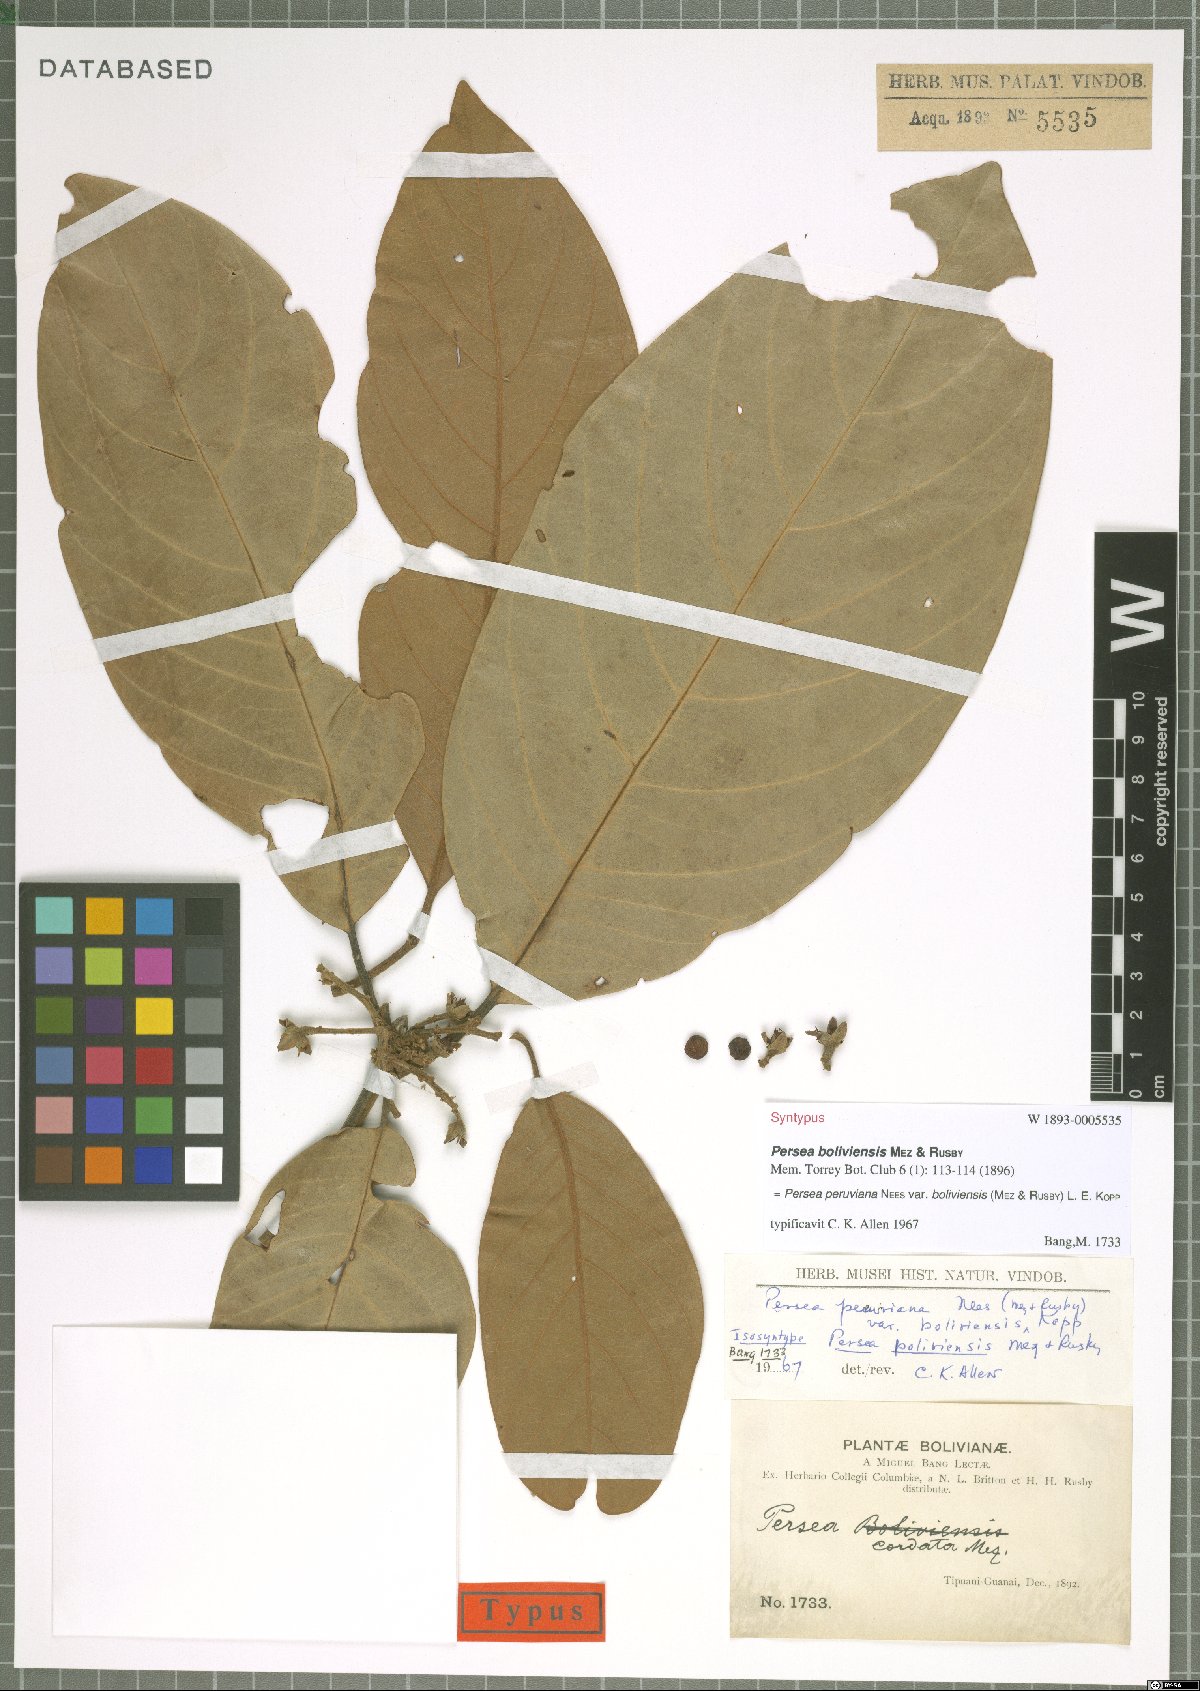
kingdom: Plantae
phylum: Tracheophyta
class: Magnoliopsida
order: Laurales
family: Lauraceae
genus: Persea
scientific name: Persea peruviana
